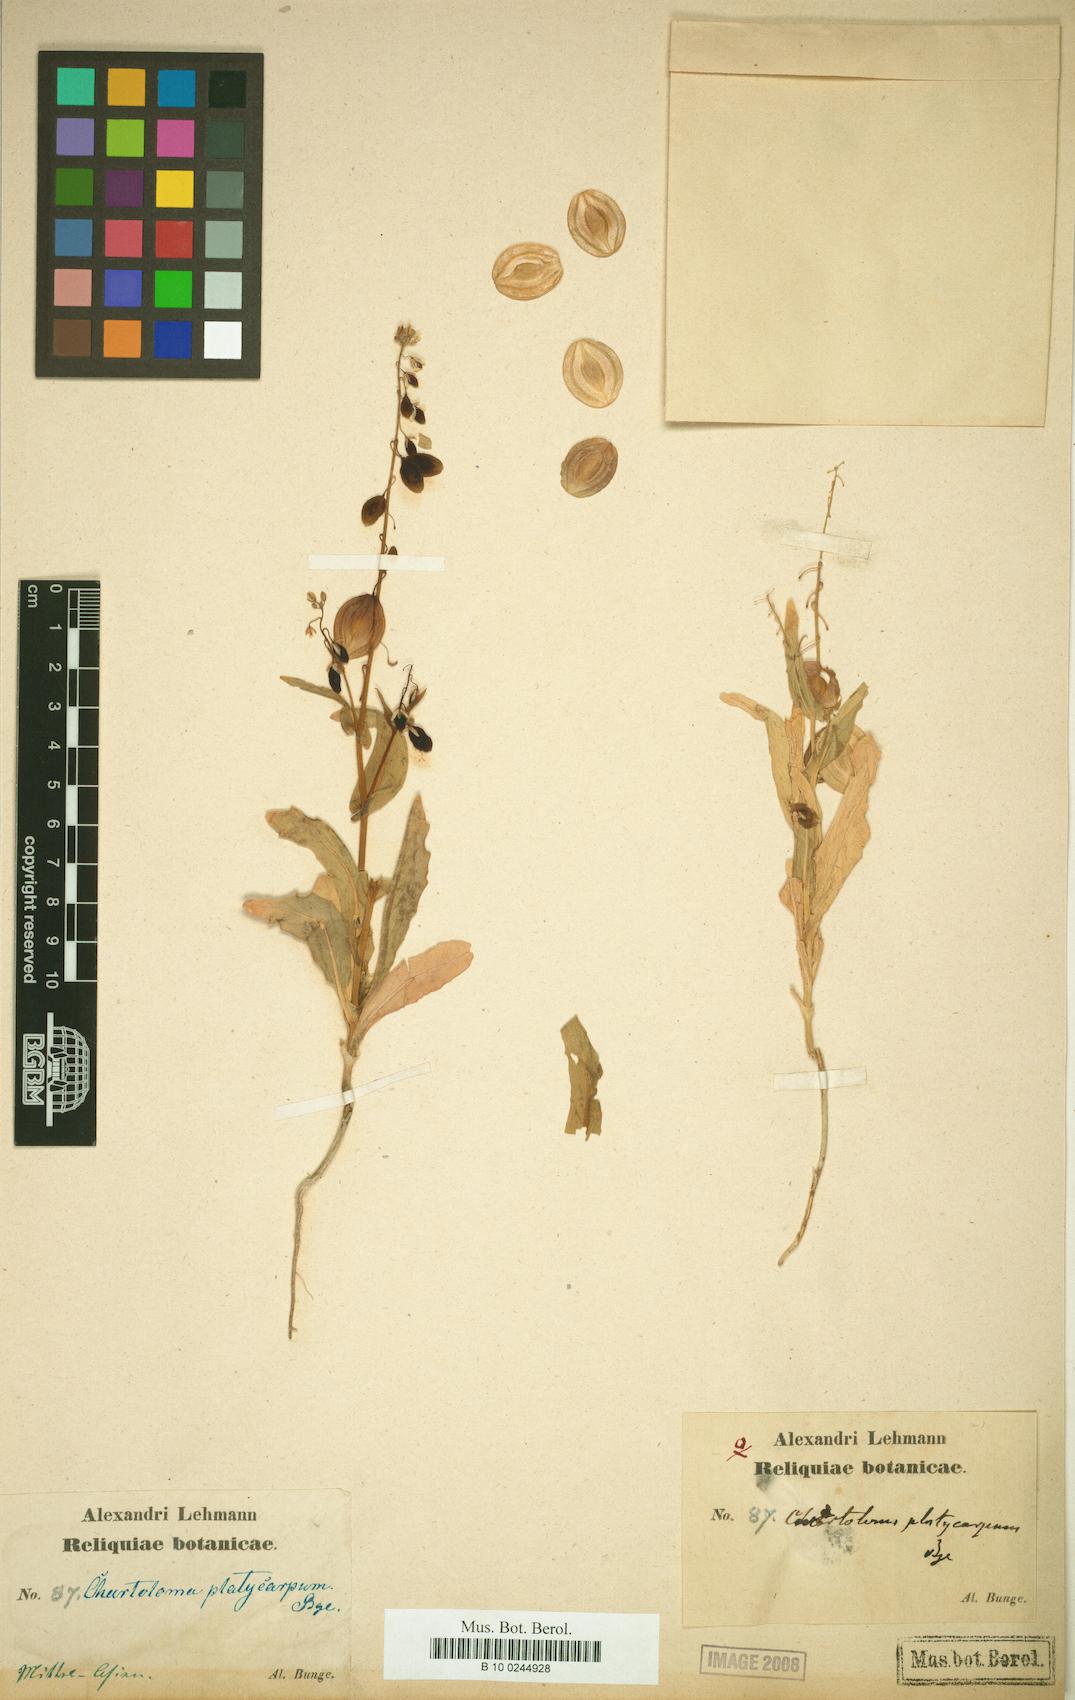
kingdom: Plantae
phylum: Tracheophyta
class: Magnoliopsida
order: Brassicales
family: Brassicaceae
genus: Chartoloma
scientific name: Chartoloma platycarpum
